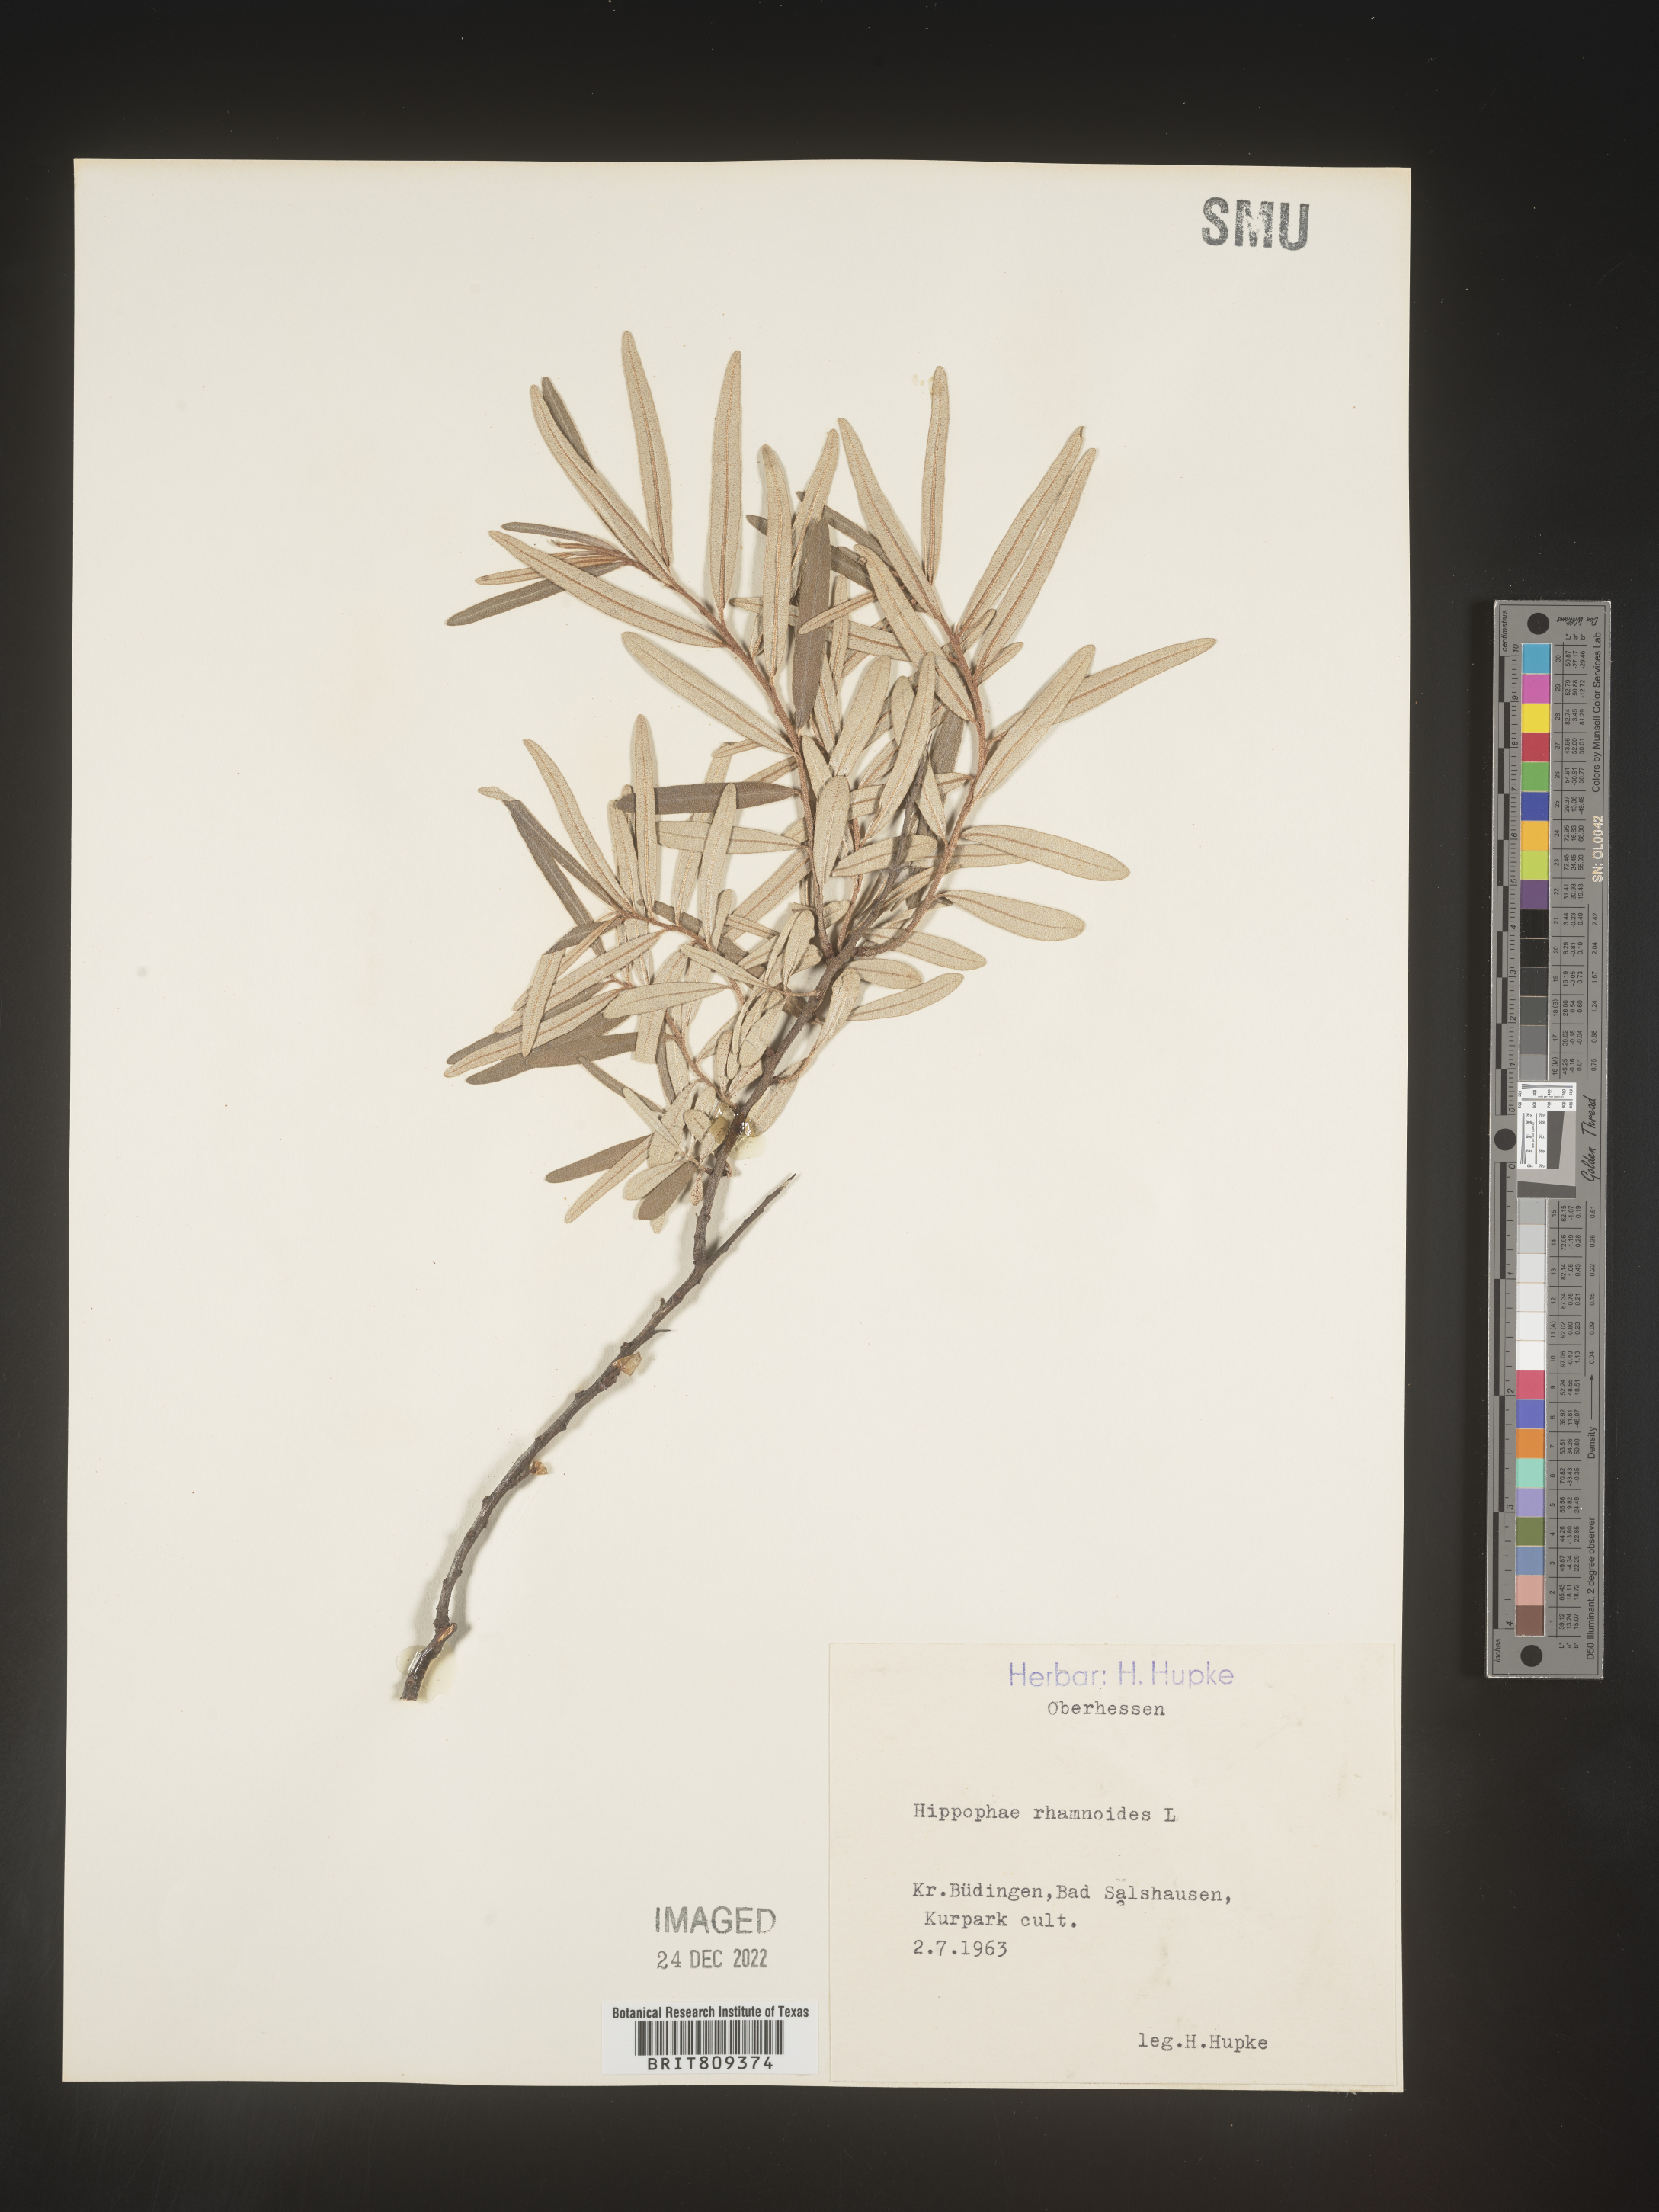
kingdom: Plantae
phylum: Tracheophyta
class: Magnoliopsida
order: Rosales
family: Elaeagnaceae
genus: Hippophae
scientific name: Hippophae
